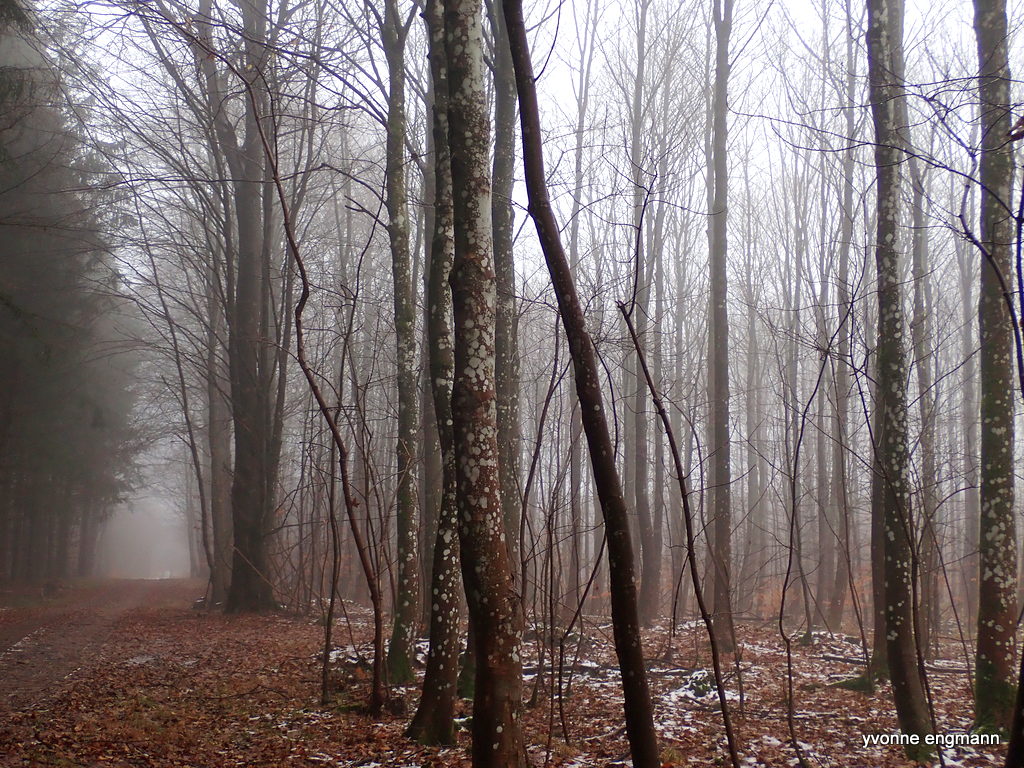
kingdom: Fungi
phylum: Ascomycota
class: Lecanoromycetes
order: Ostropales
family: Phlyctidaceae
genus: Phlyctis
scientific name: Phlyctis argena
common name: almindelig sølvlav
